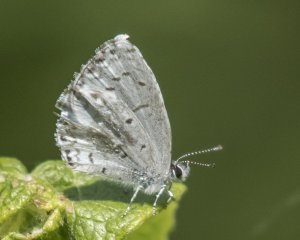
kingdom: Animalia
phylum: Arthropoda
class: Insecta
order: Lepidoptera
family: Lycaenidae
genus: Cyaniris
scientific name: Cyaniris neglecta
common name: Summer Azure
